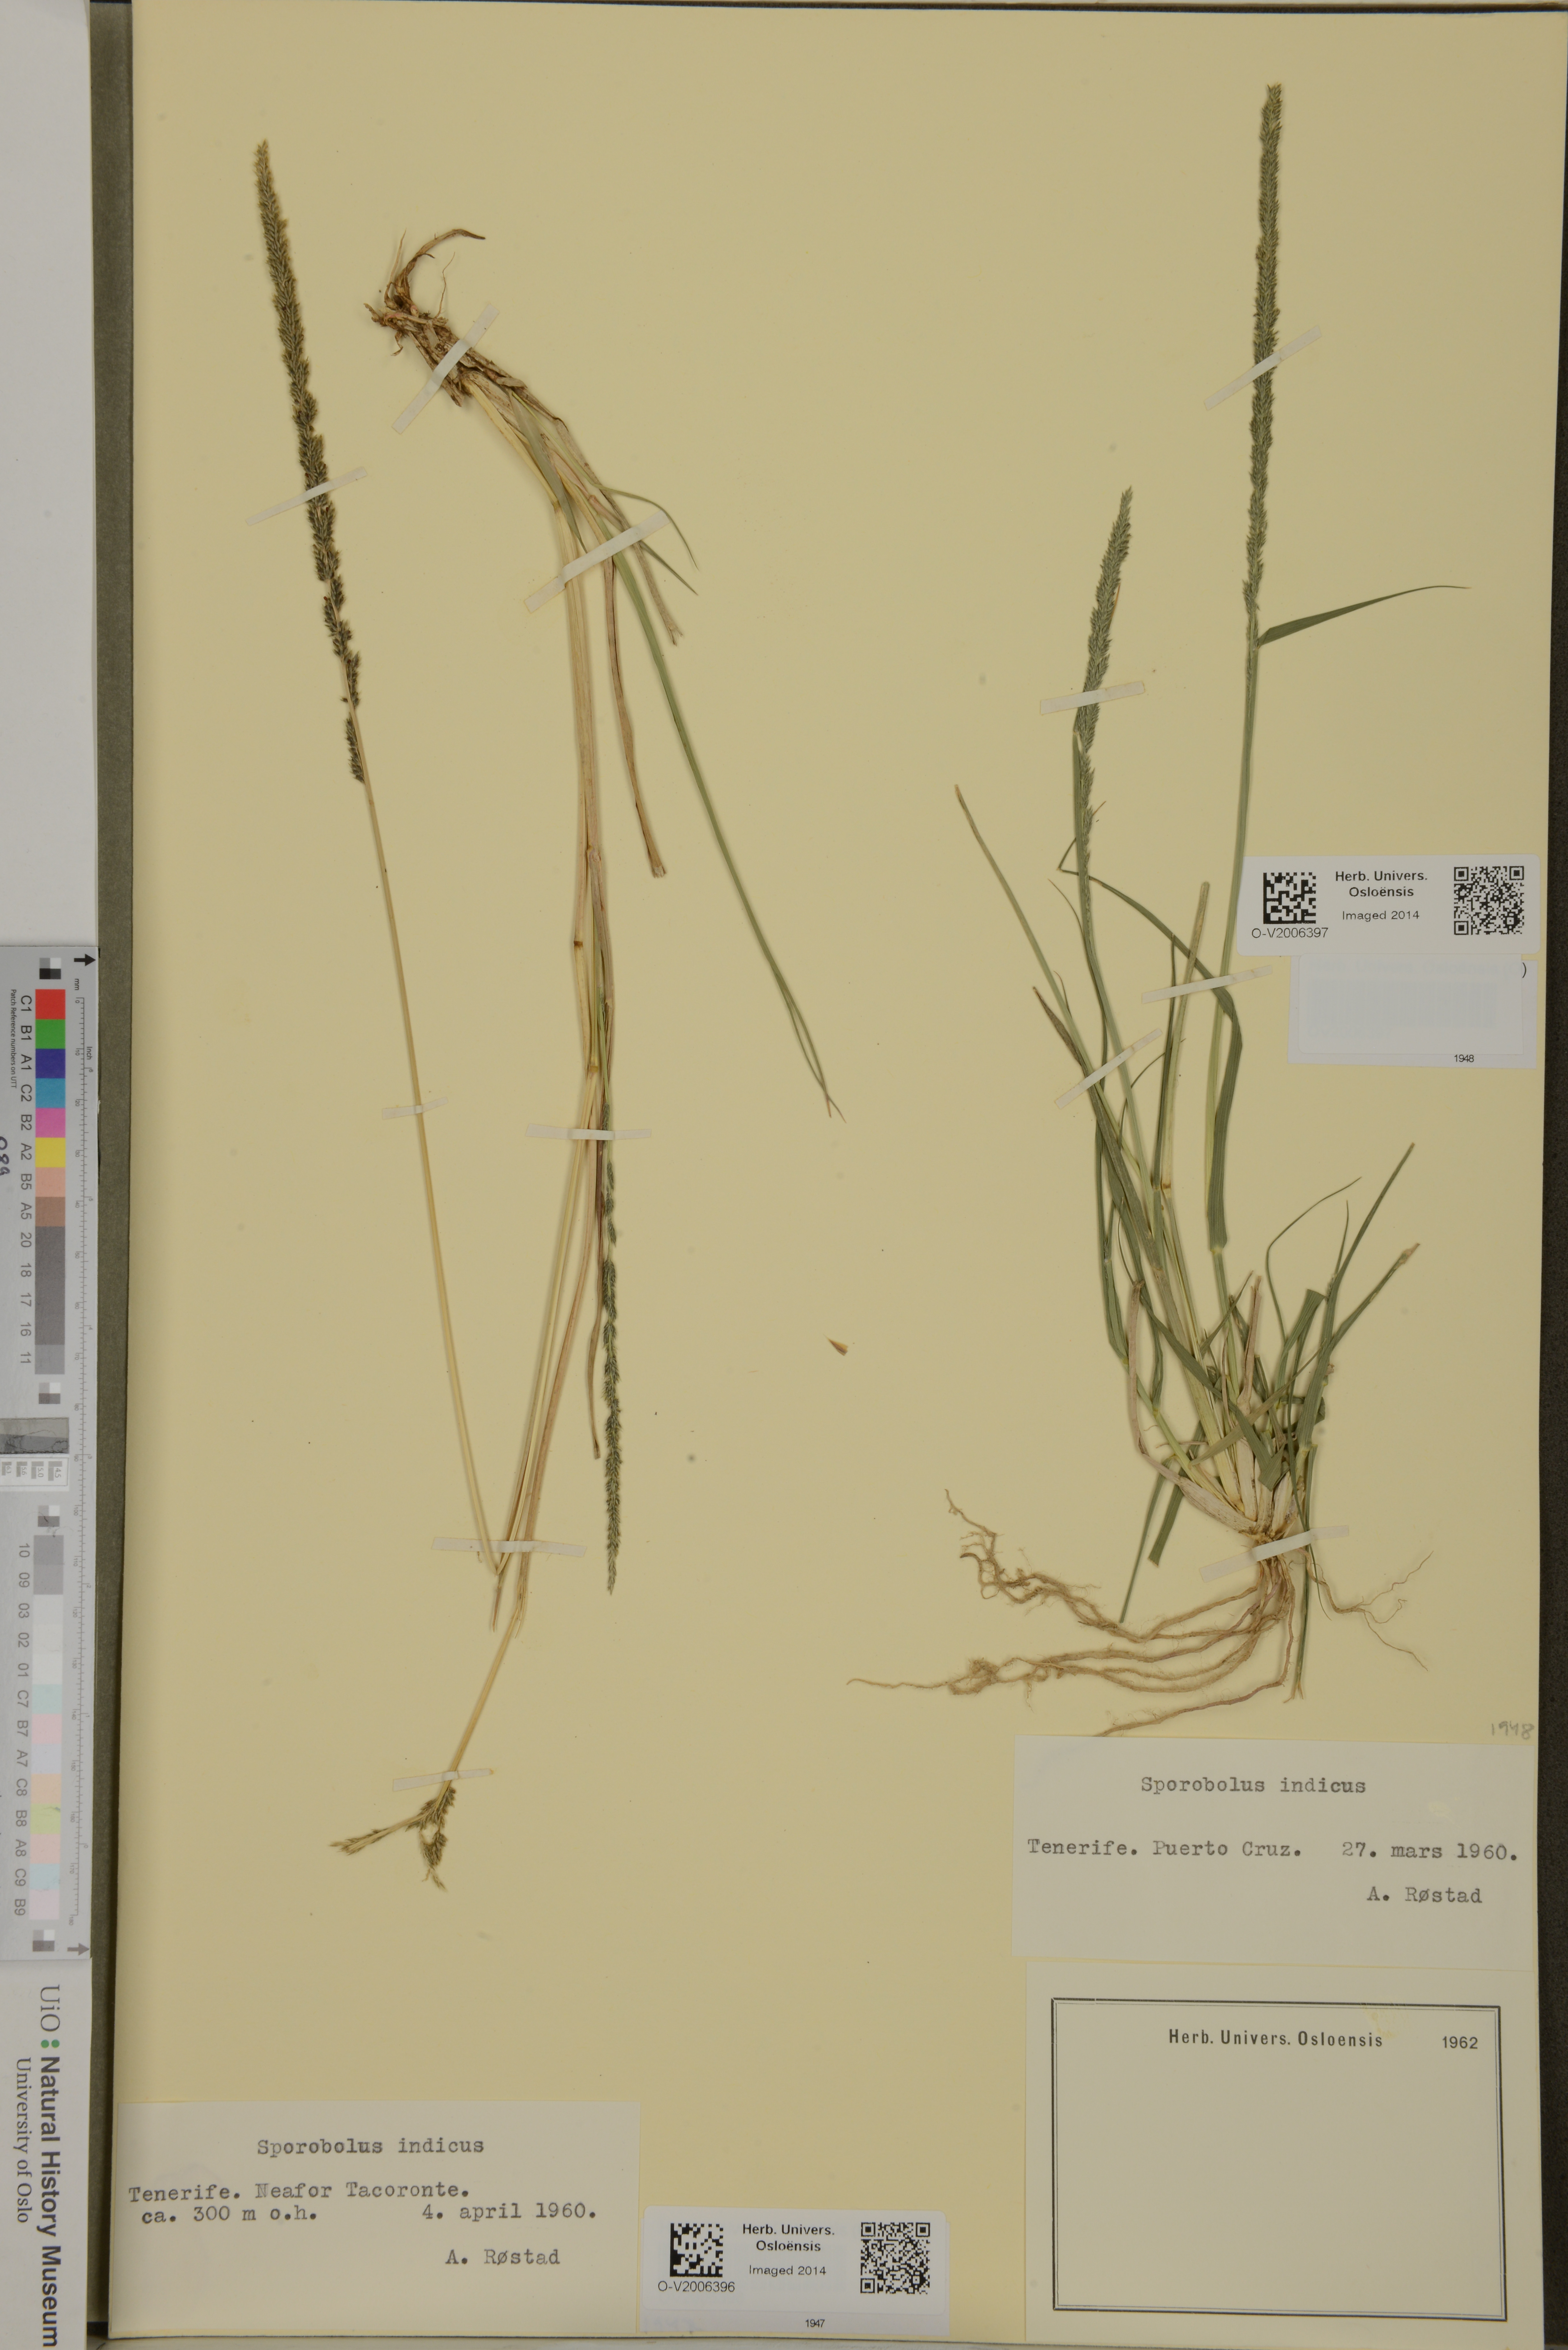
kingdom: Plantae
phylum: Tracheophyta
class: Liliopsida
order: Poales
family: Poaceae
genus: Sporobolus
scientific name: Sporobolus indicus
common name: Smut grass
